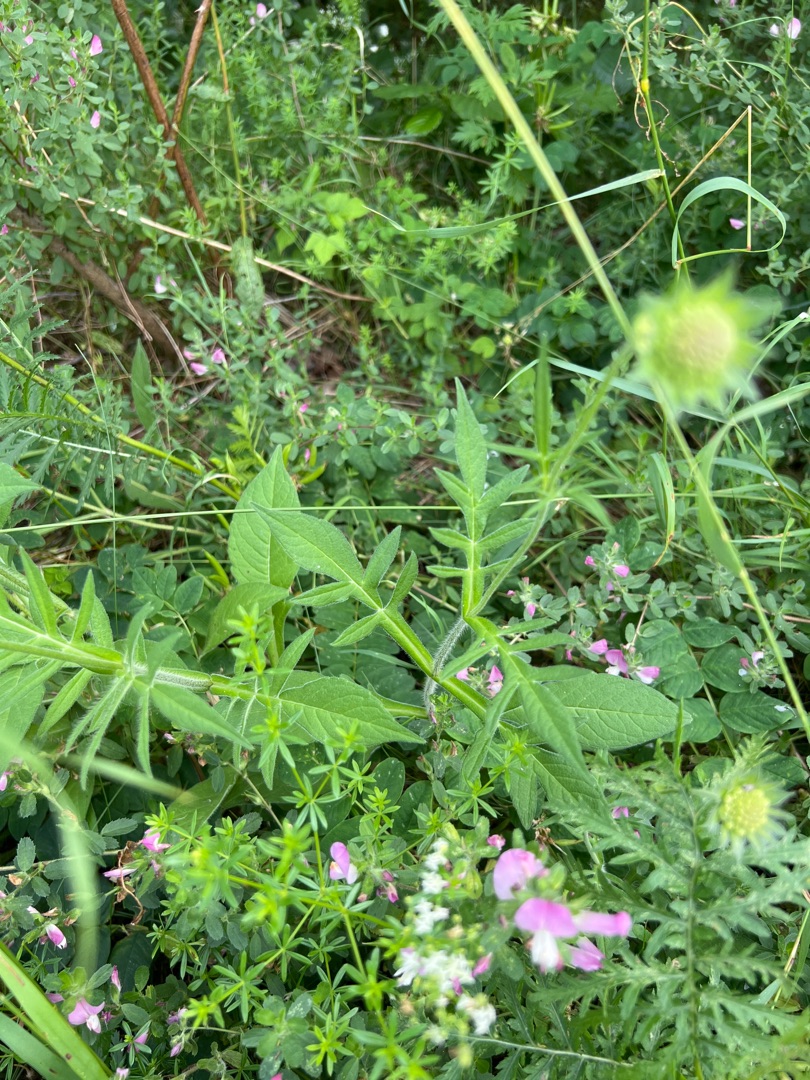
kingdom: Plantae
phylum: Tracheophyta
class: Magnoliopsida
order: Dipsacales
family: Caprifoliaceae
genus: Knautia
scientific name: Knautia arvensis
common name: Blåhat
